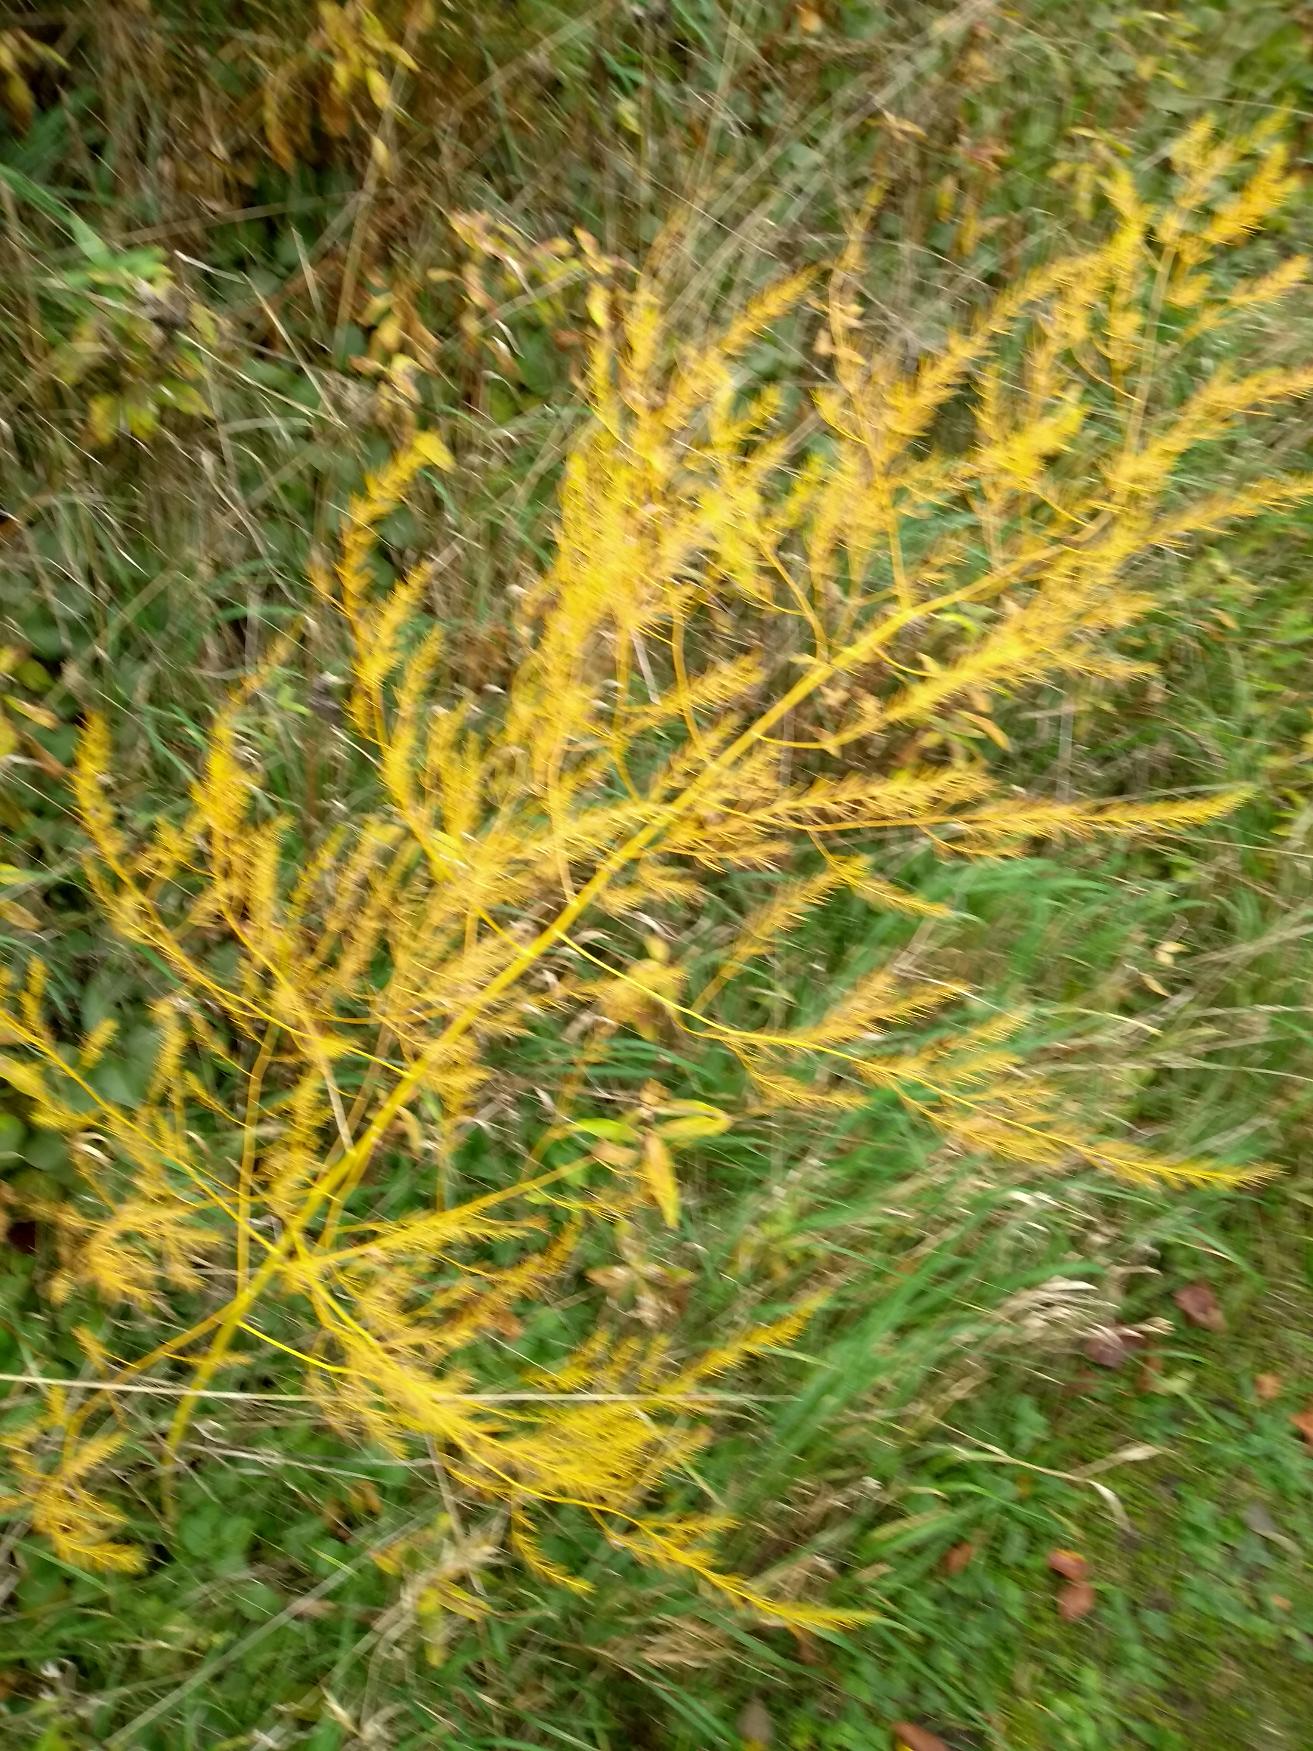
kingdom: Plantae
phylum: Tracheophyta
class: Liliopsida
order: Asparagales
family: Asparagaceae
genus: Asparagus
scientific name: Asparagus officinalis
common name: Asparges
